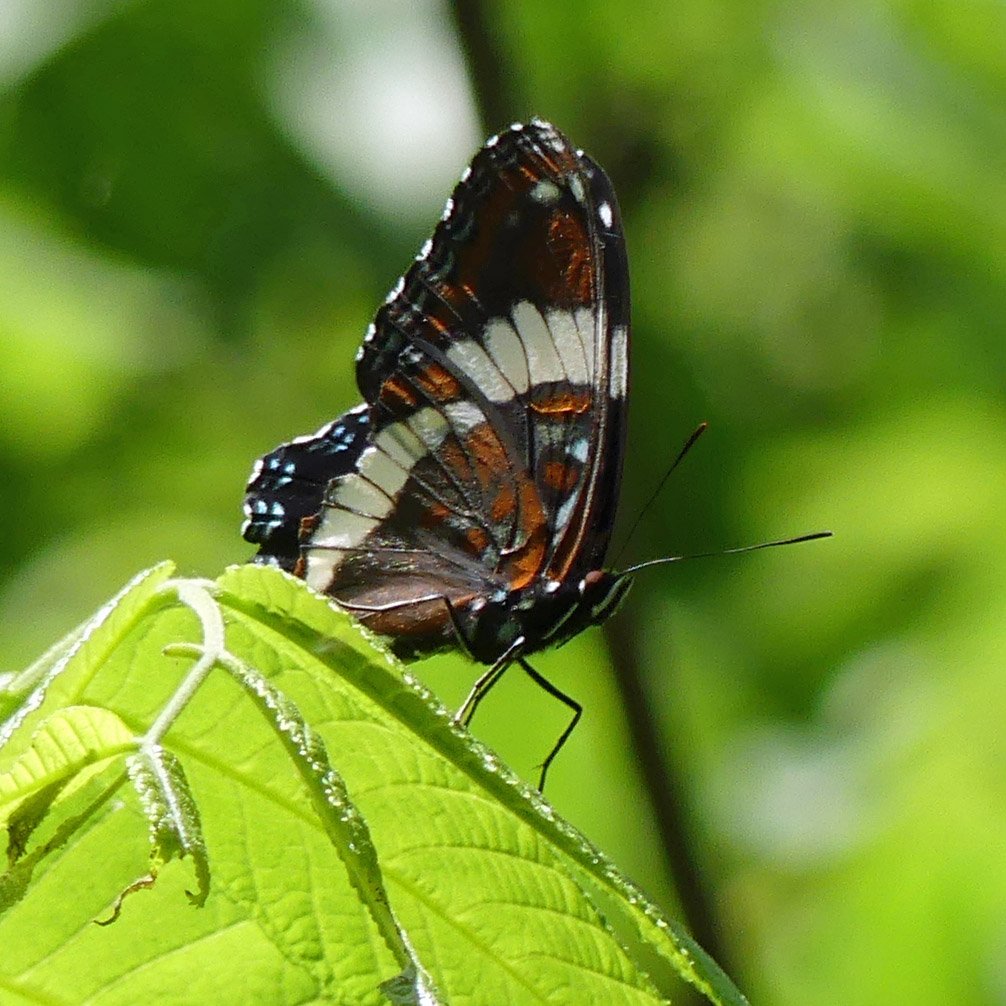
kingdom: Animalia
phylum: Arthropoda
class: Insecta
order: Lepidoptera
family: Nymphalidae
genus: Limenitis
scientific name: Limenitis arthemis
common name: Red-spotted Admiral
